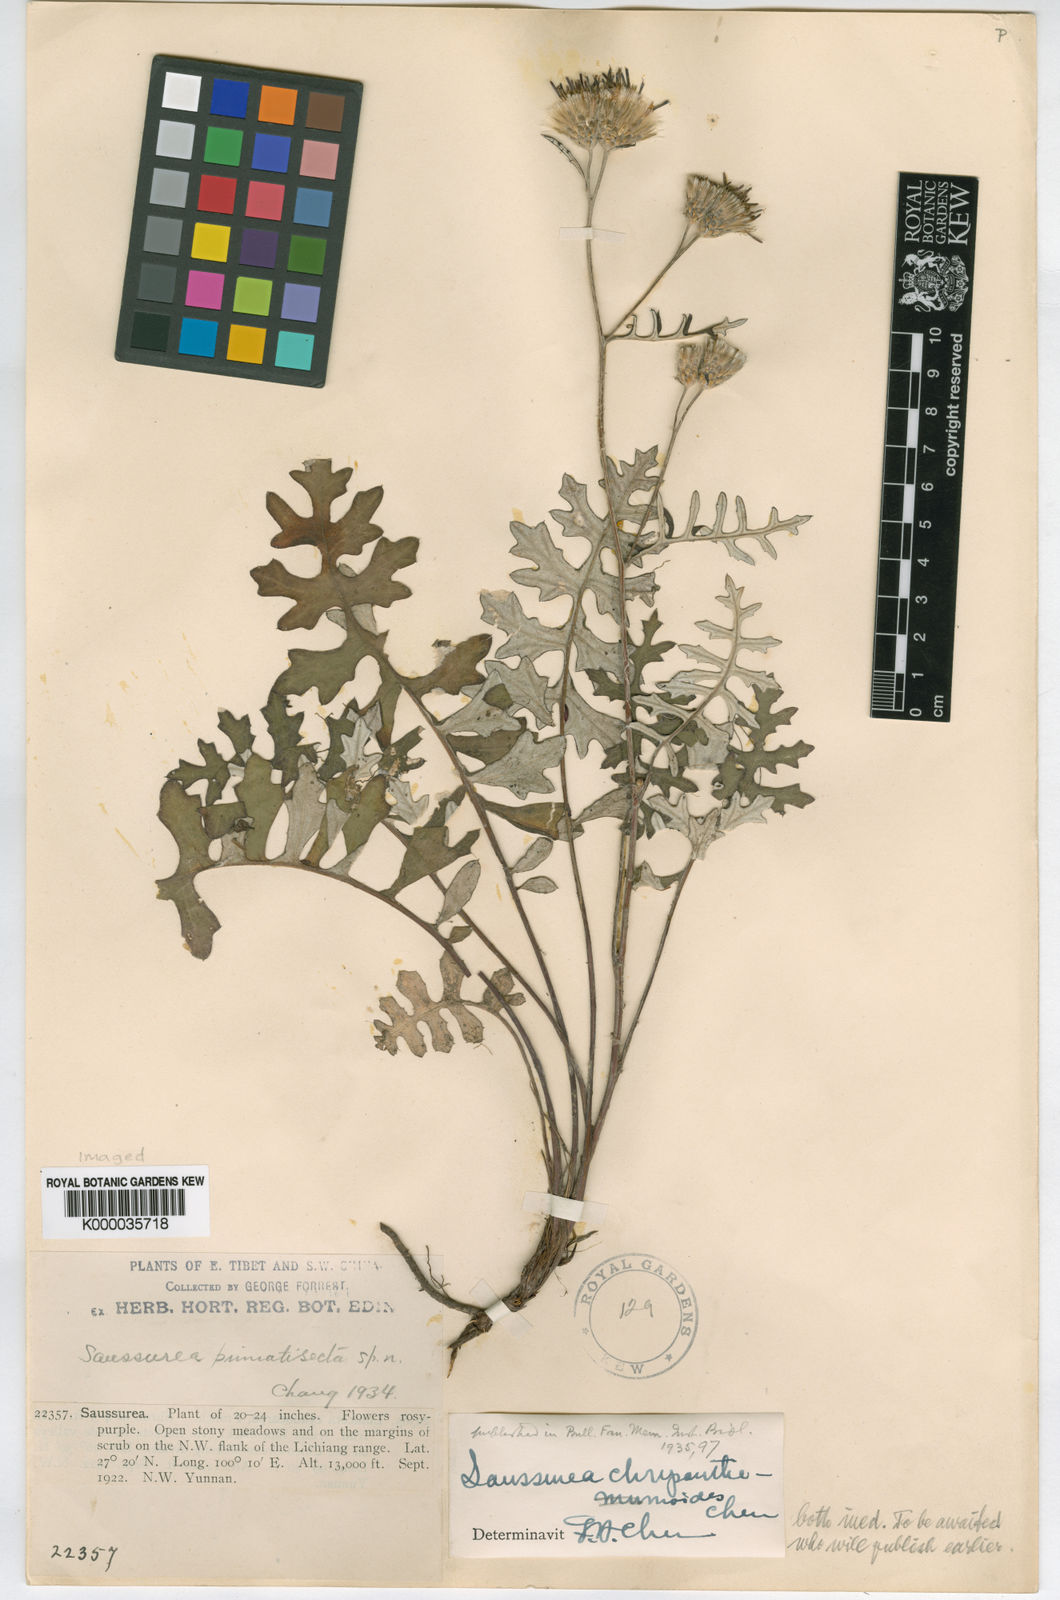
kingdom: Plantae
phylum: Tracheophyta
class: Magnoliopsida
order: Asterales
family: Asteraceae
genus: Saussurea
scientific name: Saussurea compta
